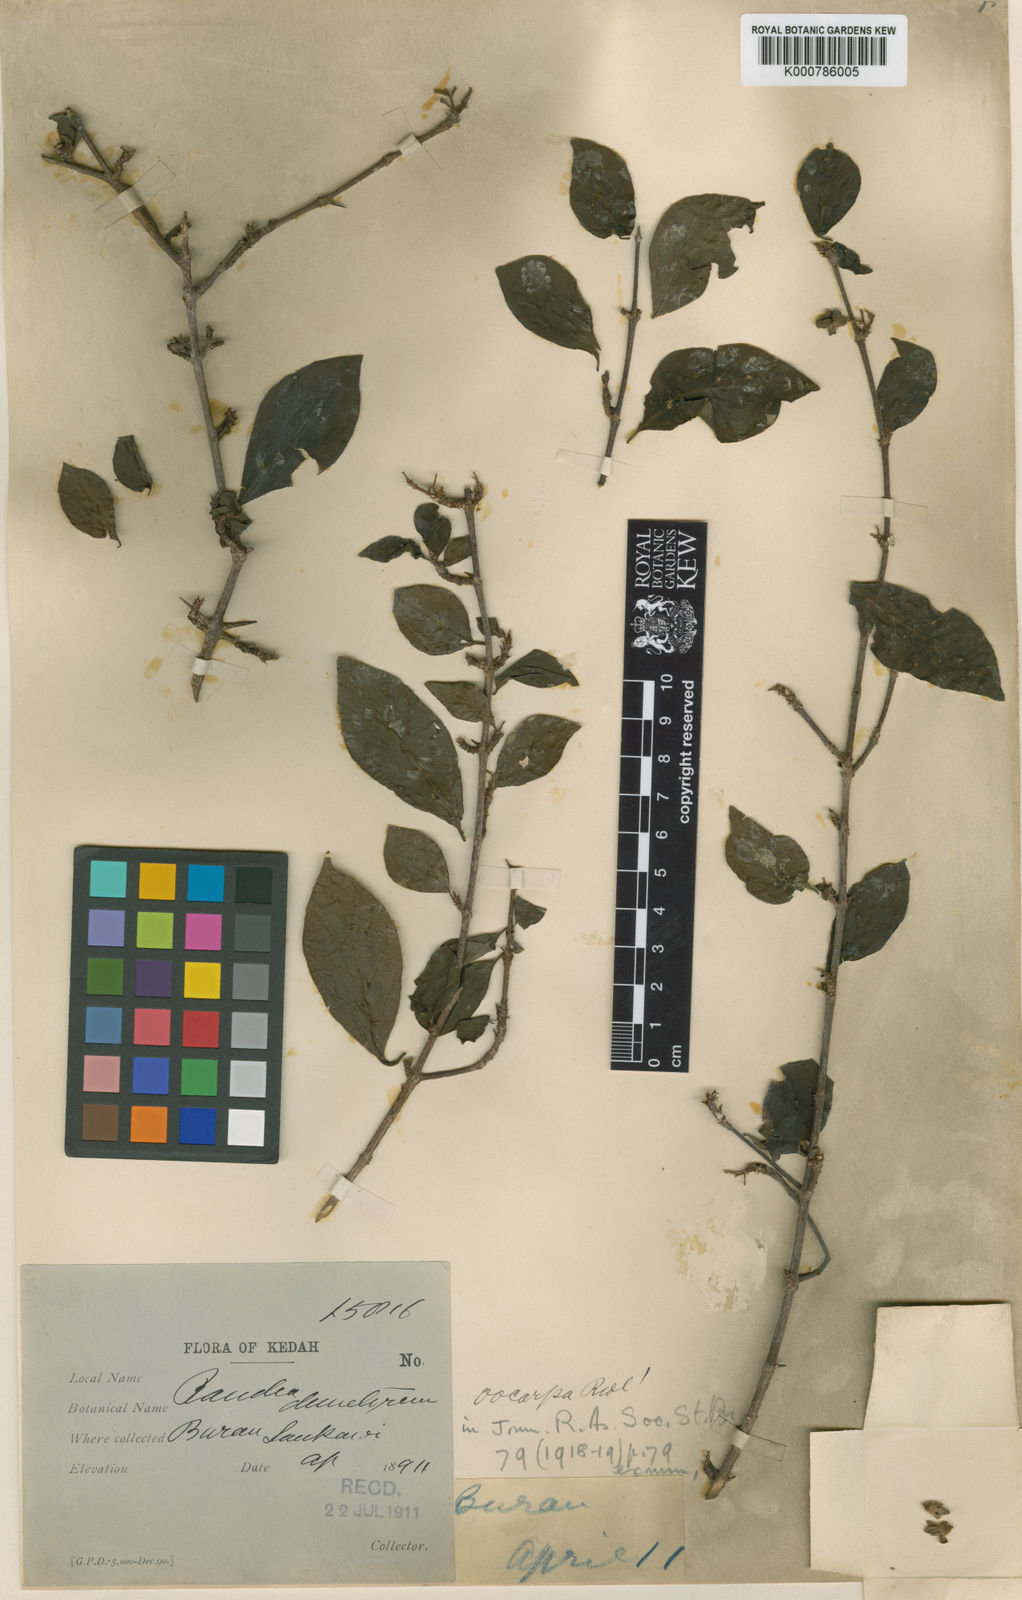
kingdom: Plantae
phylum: Tracheophyta
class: Magnoliopsida
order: Gentianales
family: Rubiaceae
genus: Catunaregam
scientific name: Catunaregam oocarpa
